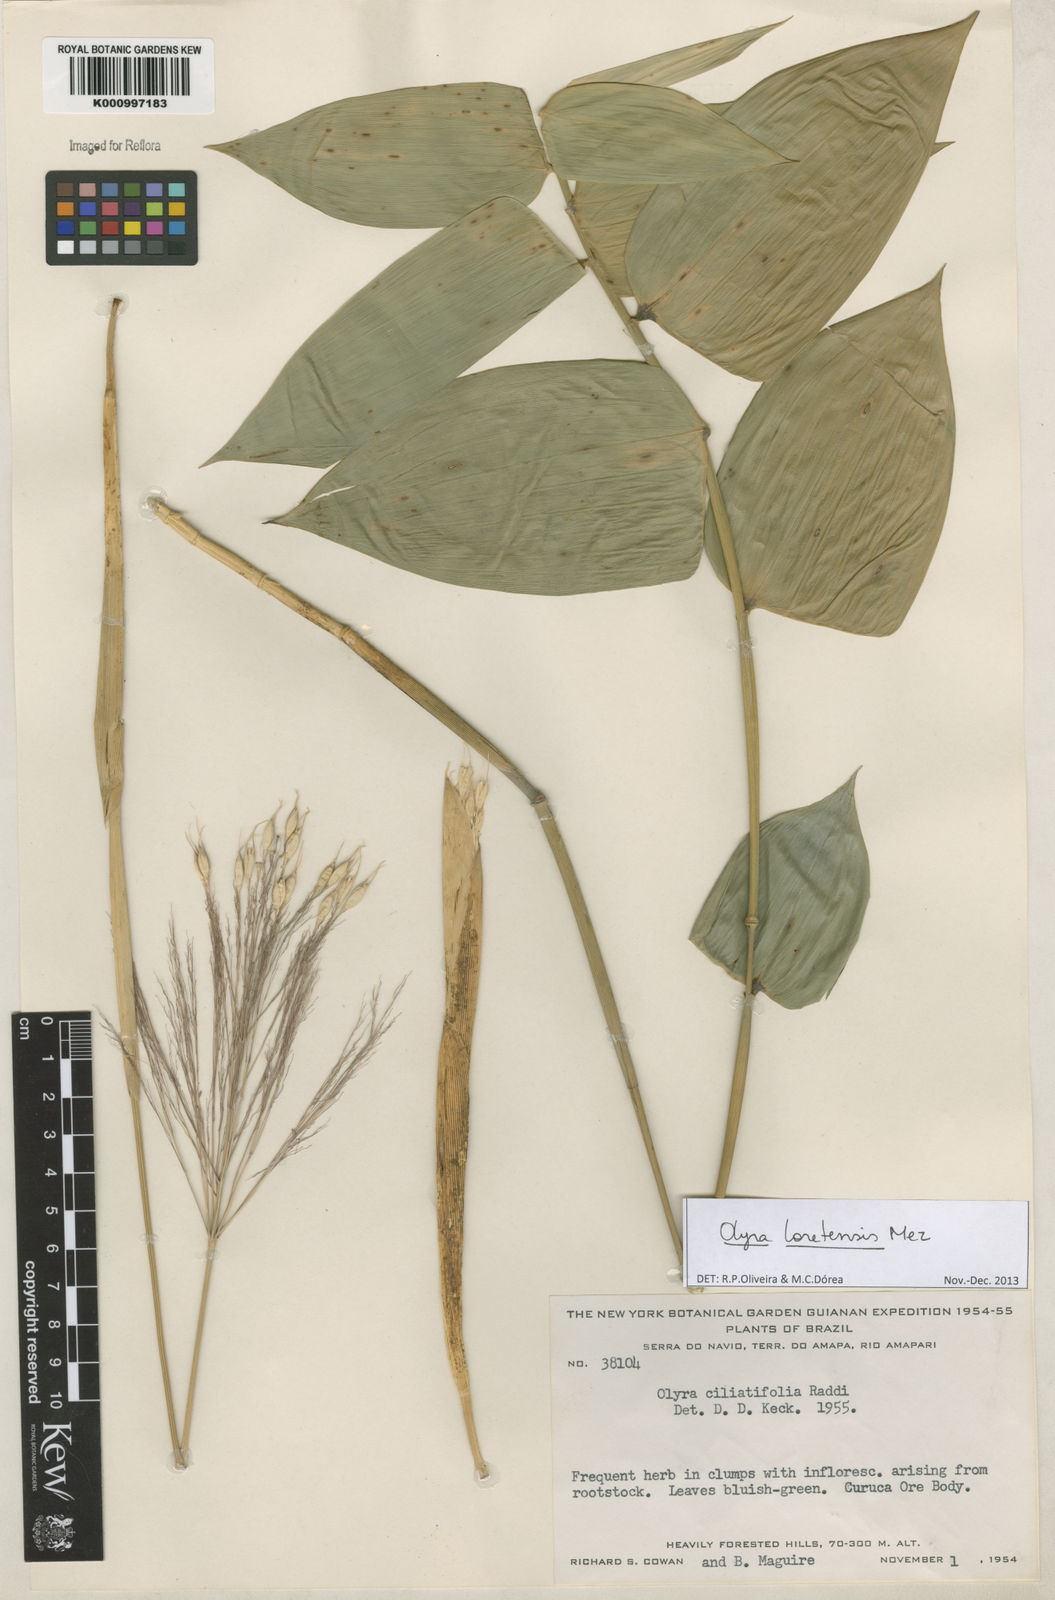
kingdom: Plantae
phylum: Tracheophyta
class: Liliopsida
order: Poales
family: Poaceae
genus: Olyra
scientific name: Olyra loretensis
